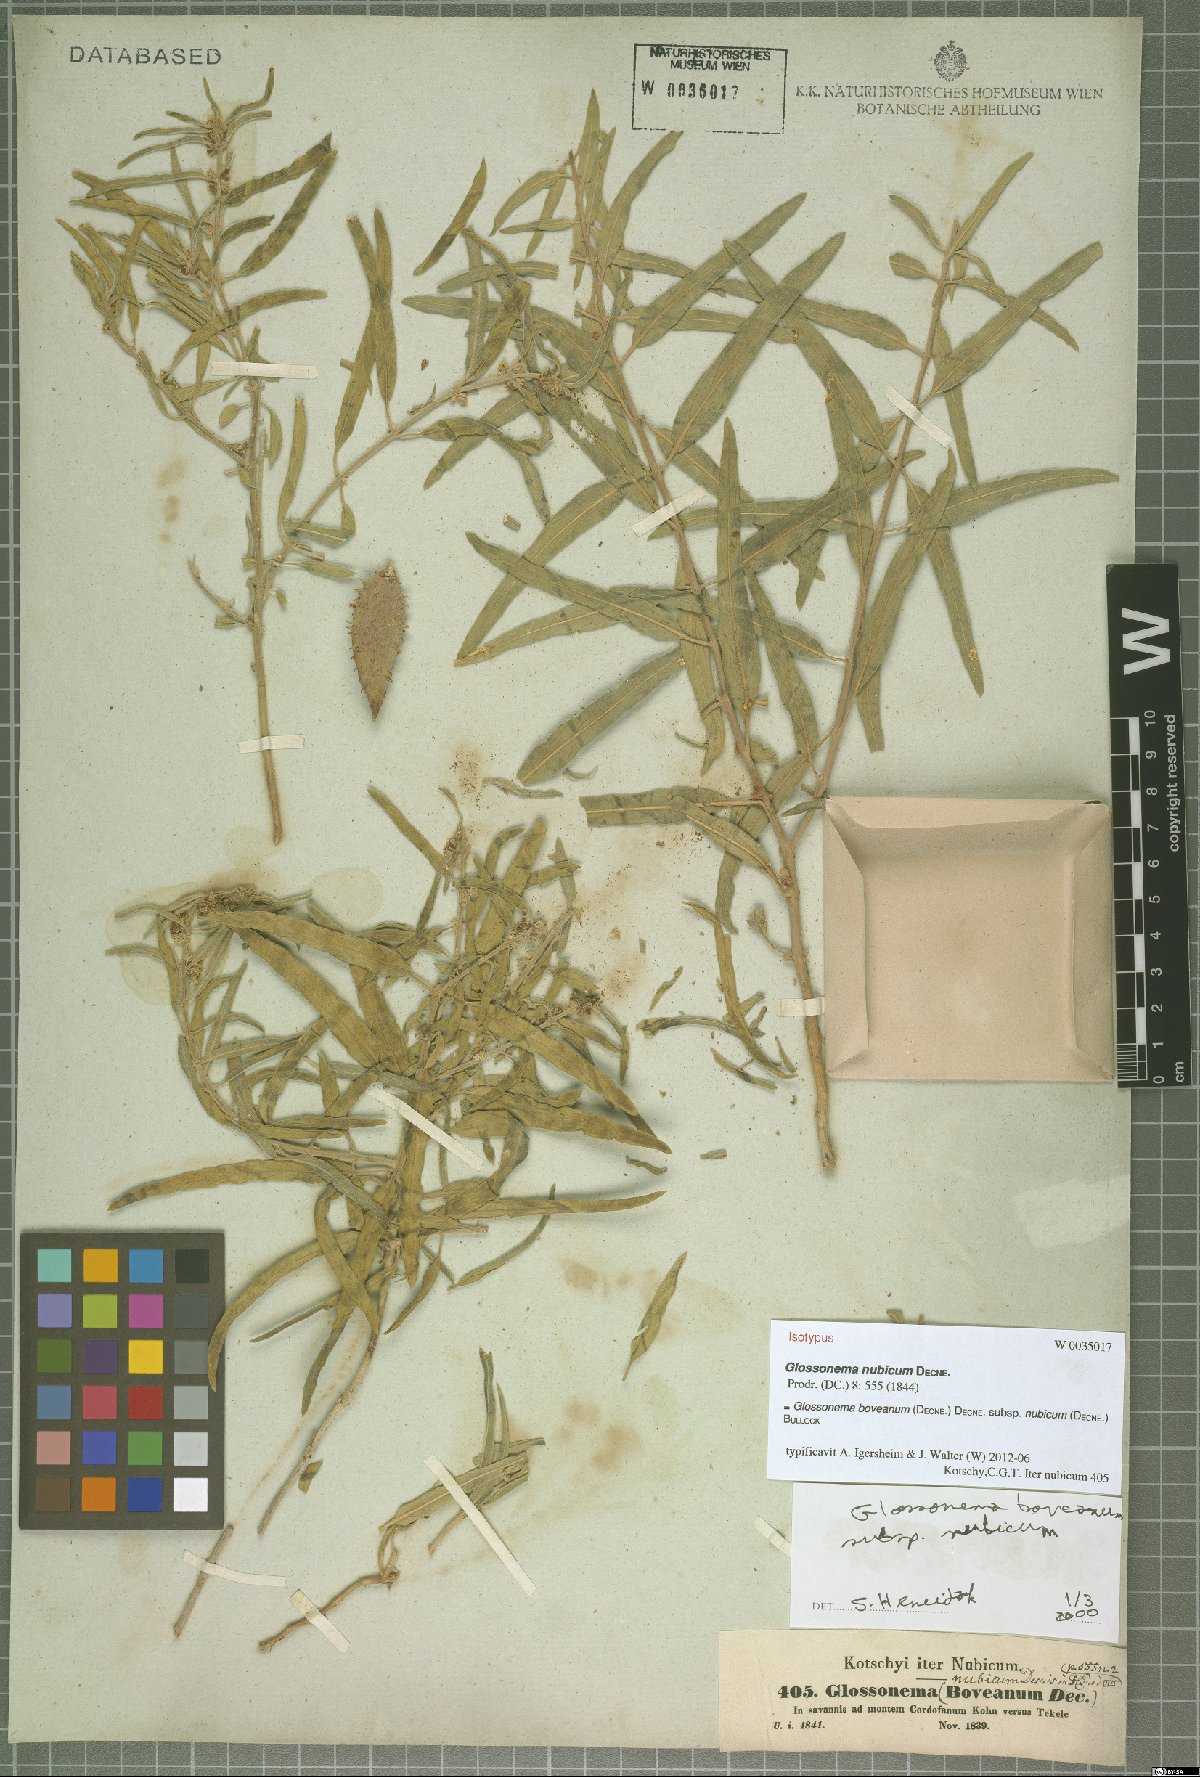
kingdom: Plantae
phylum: Tracheophyta
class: Magnoliopsida
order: Gentianales
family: Apocynaceae
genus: Cynanchum
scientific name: Cynanchum boveanum
